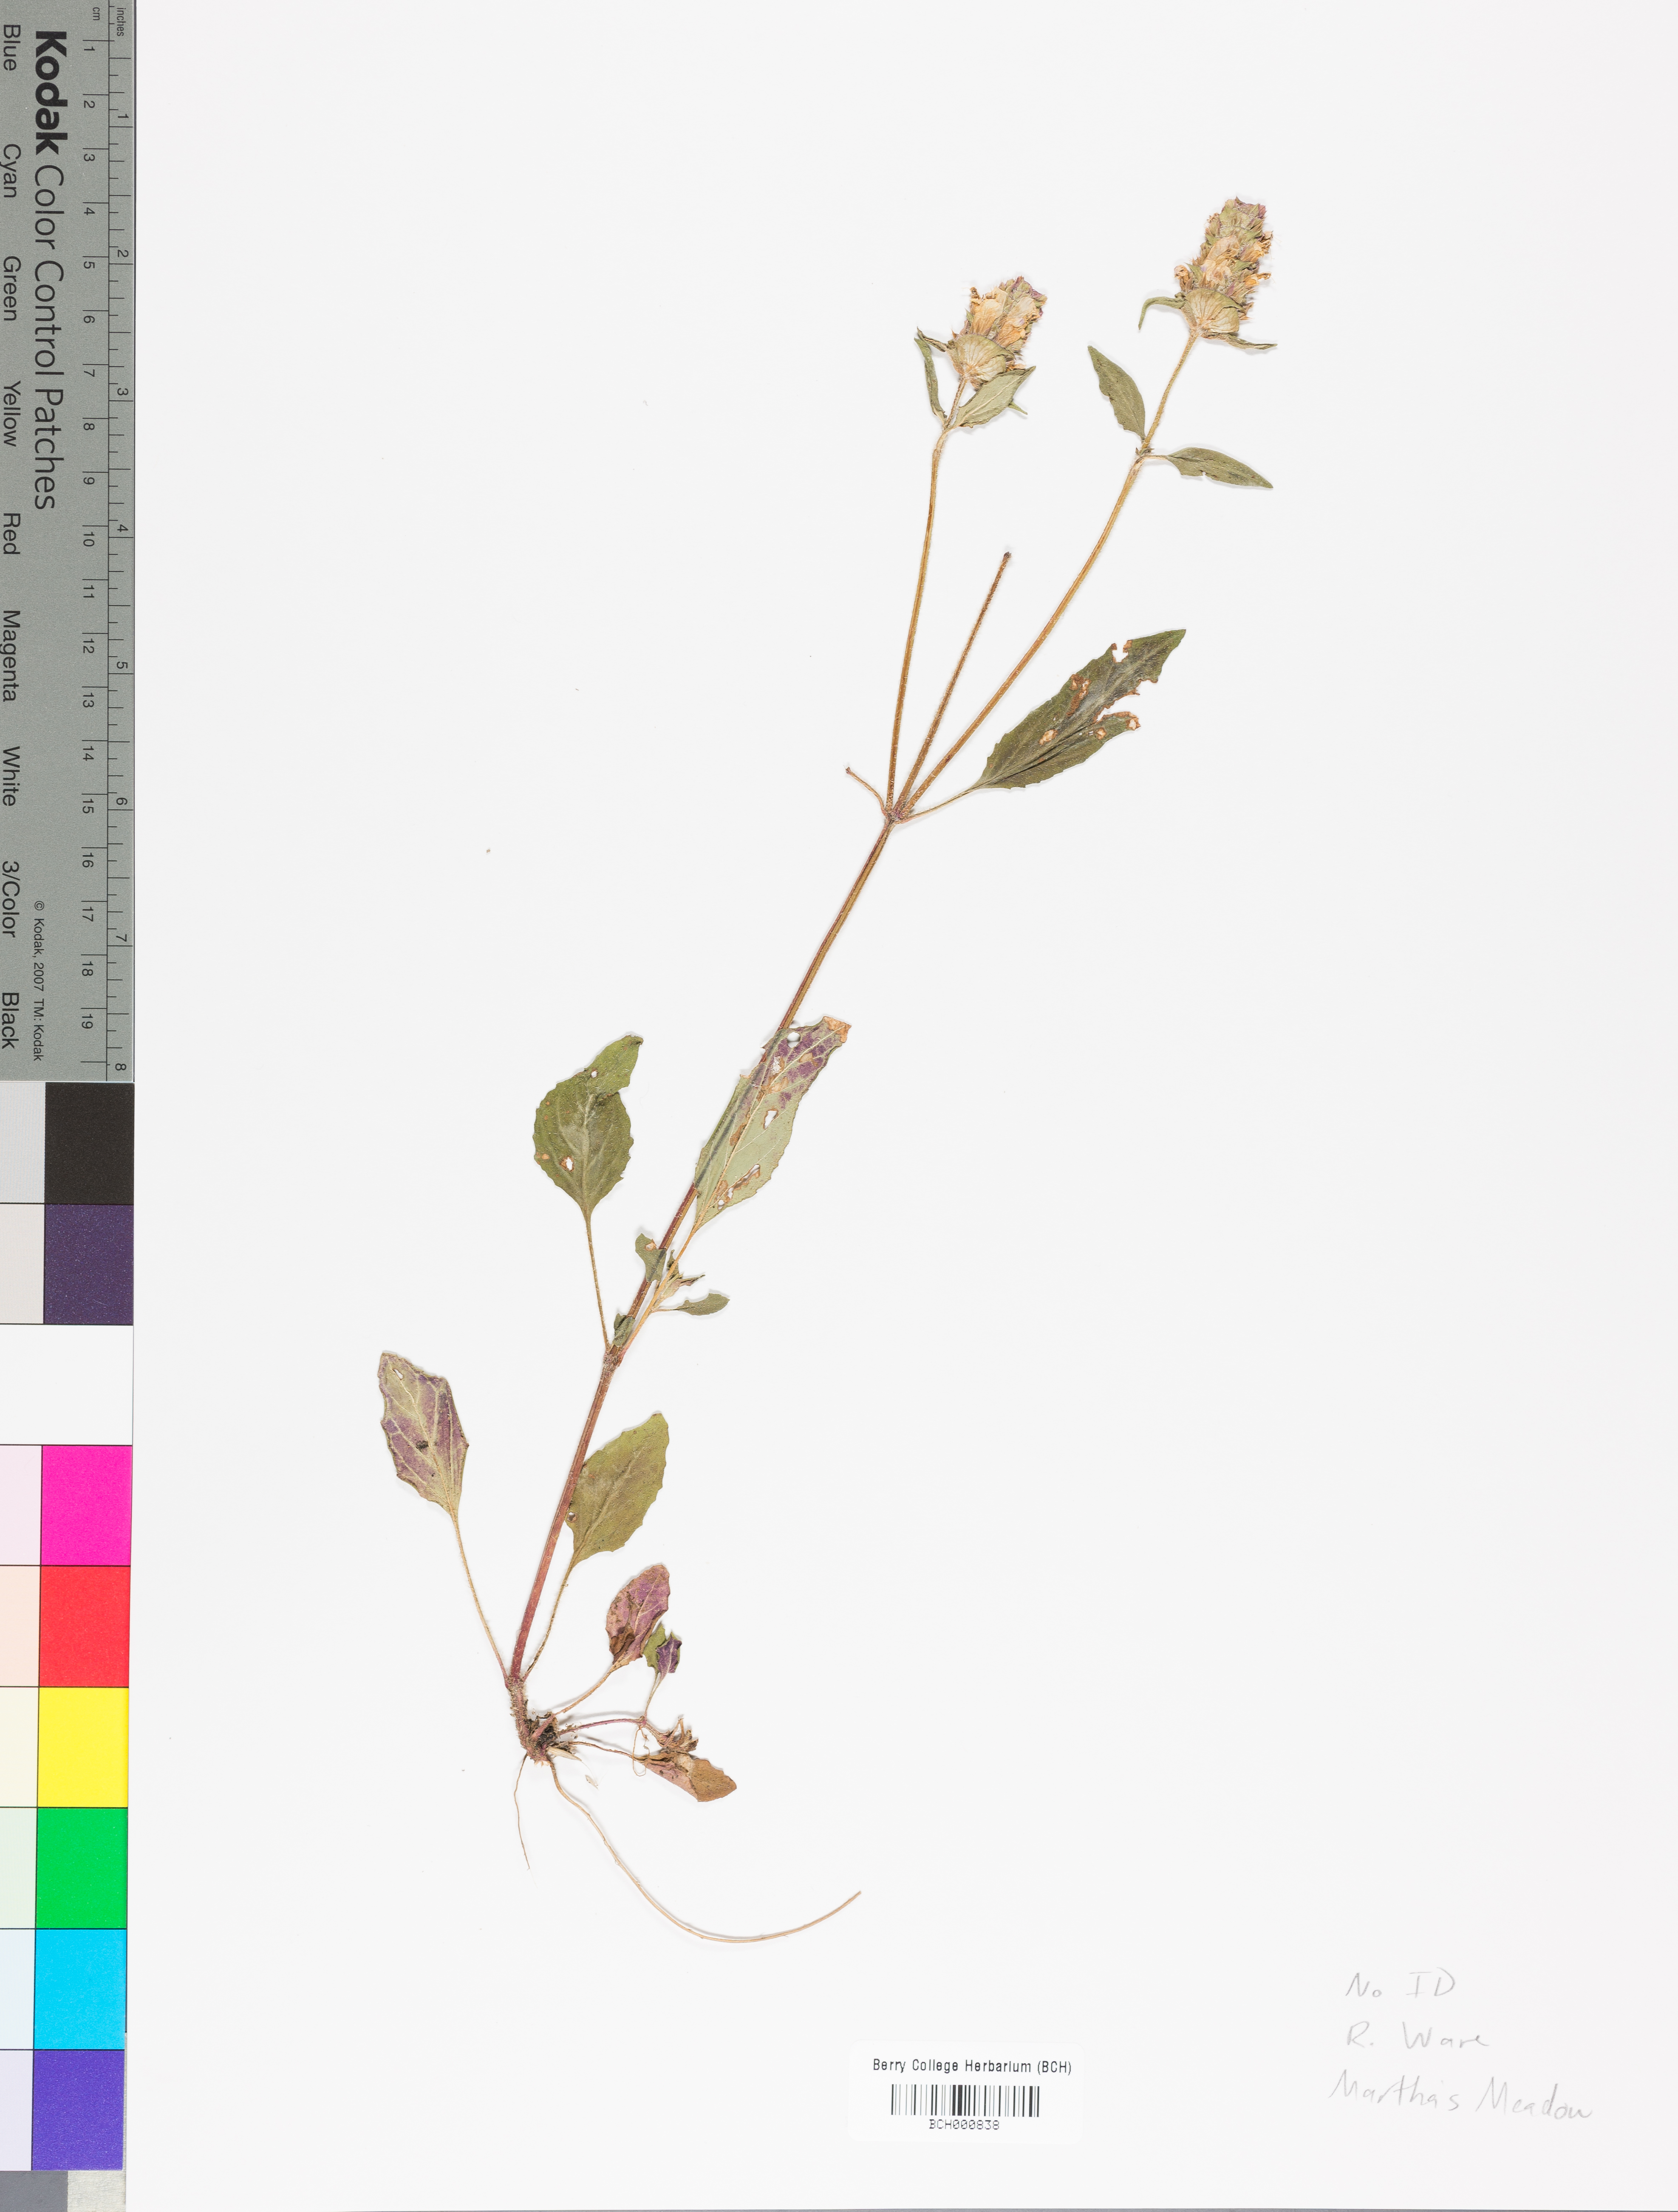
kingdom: Plantae
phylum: Tracheophyta
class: Magnoliopsida
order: Lamiales
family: Acanthaceae
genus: Adhatoda
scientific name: Adhatoda
